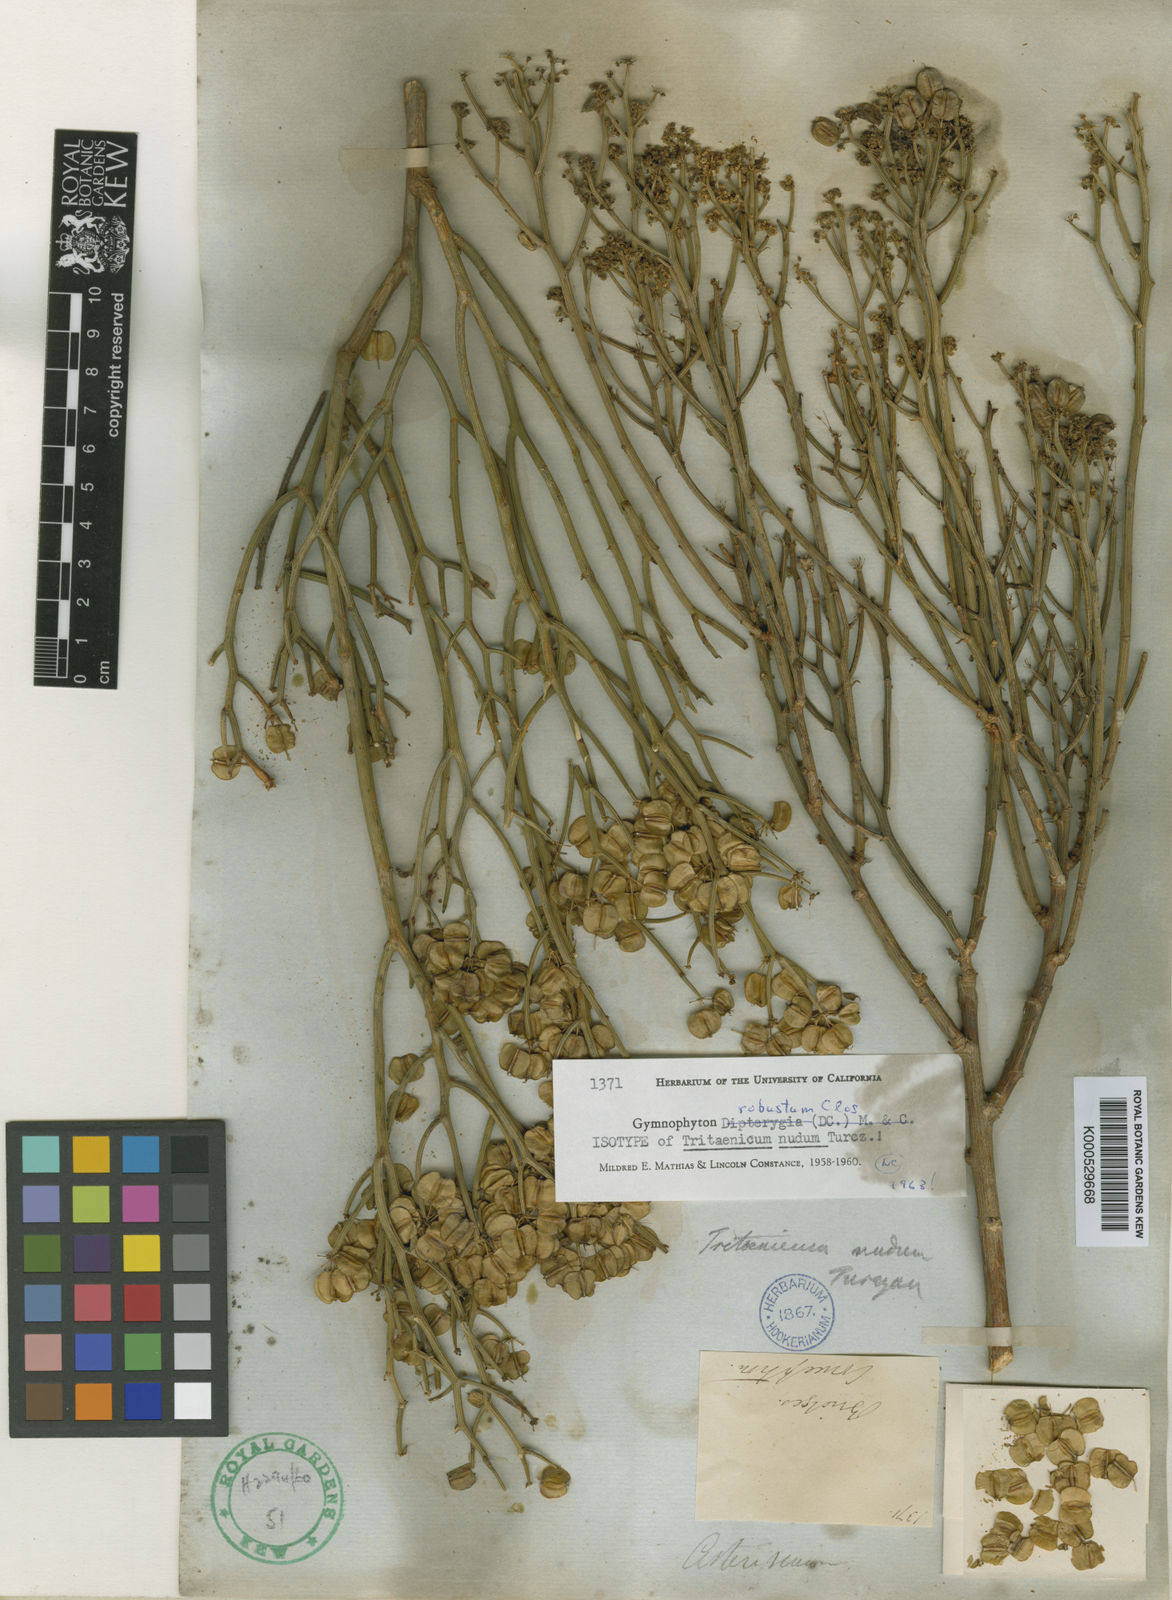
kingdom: Plantae
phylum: Tracheophyta
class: Magnoliopsida
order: Apiales
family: Apiaceae
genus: Gymnophyton
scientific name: Gymnophyton robustum
